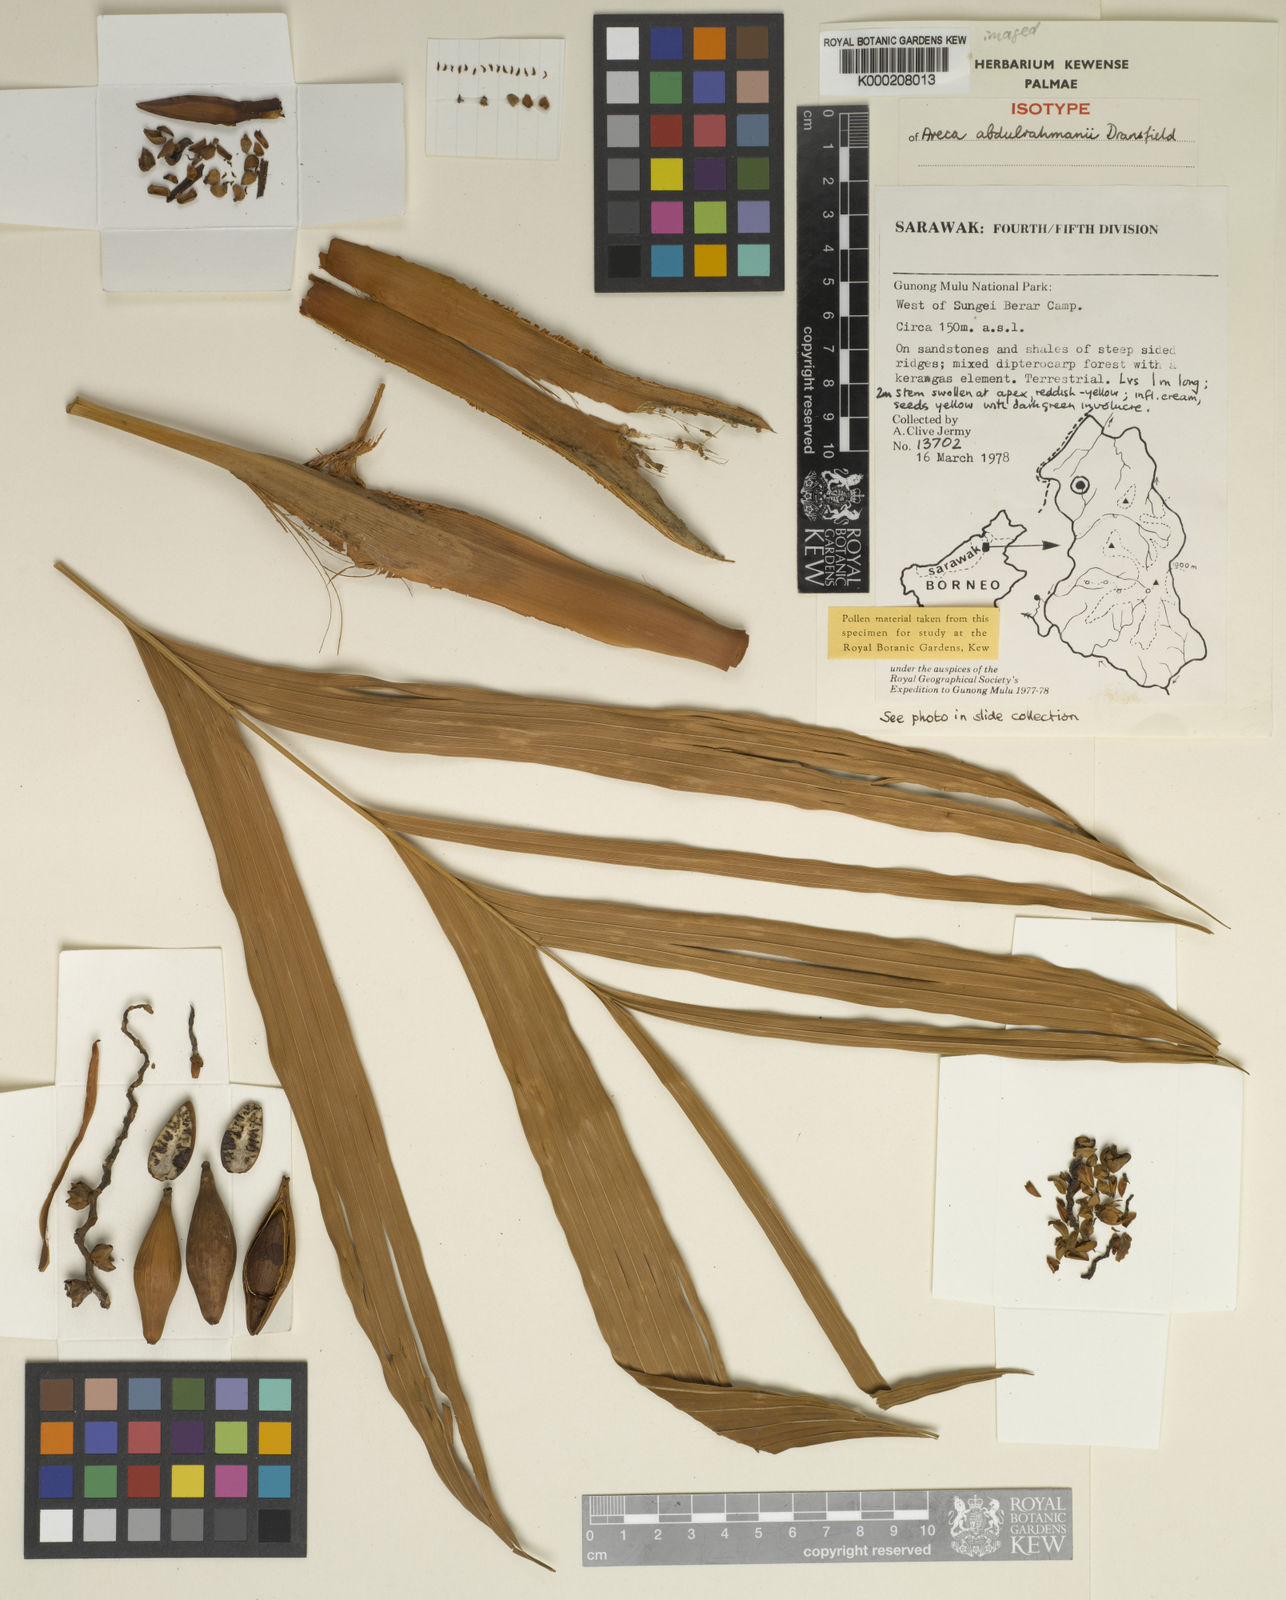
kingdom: Plantae
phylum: Tracheophyta
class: Liliopsida
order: Arecales
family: Arecaceae
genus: Areca
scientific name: Areca abdulrahmanii
